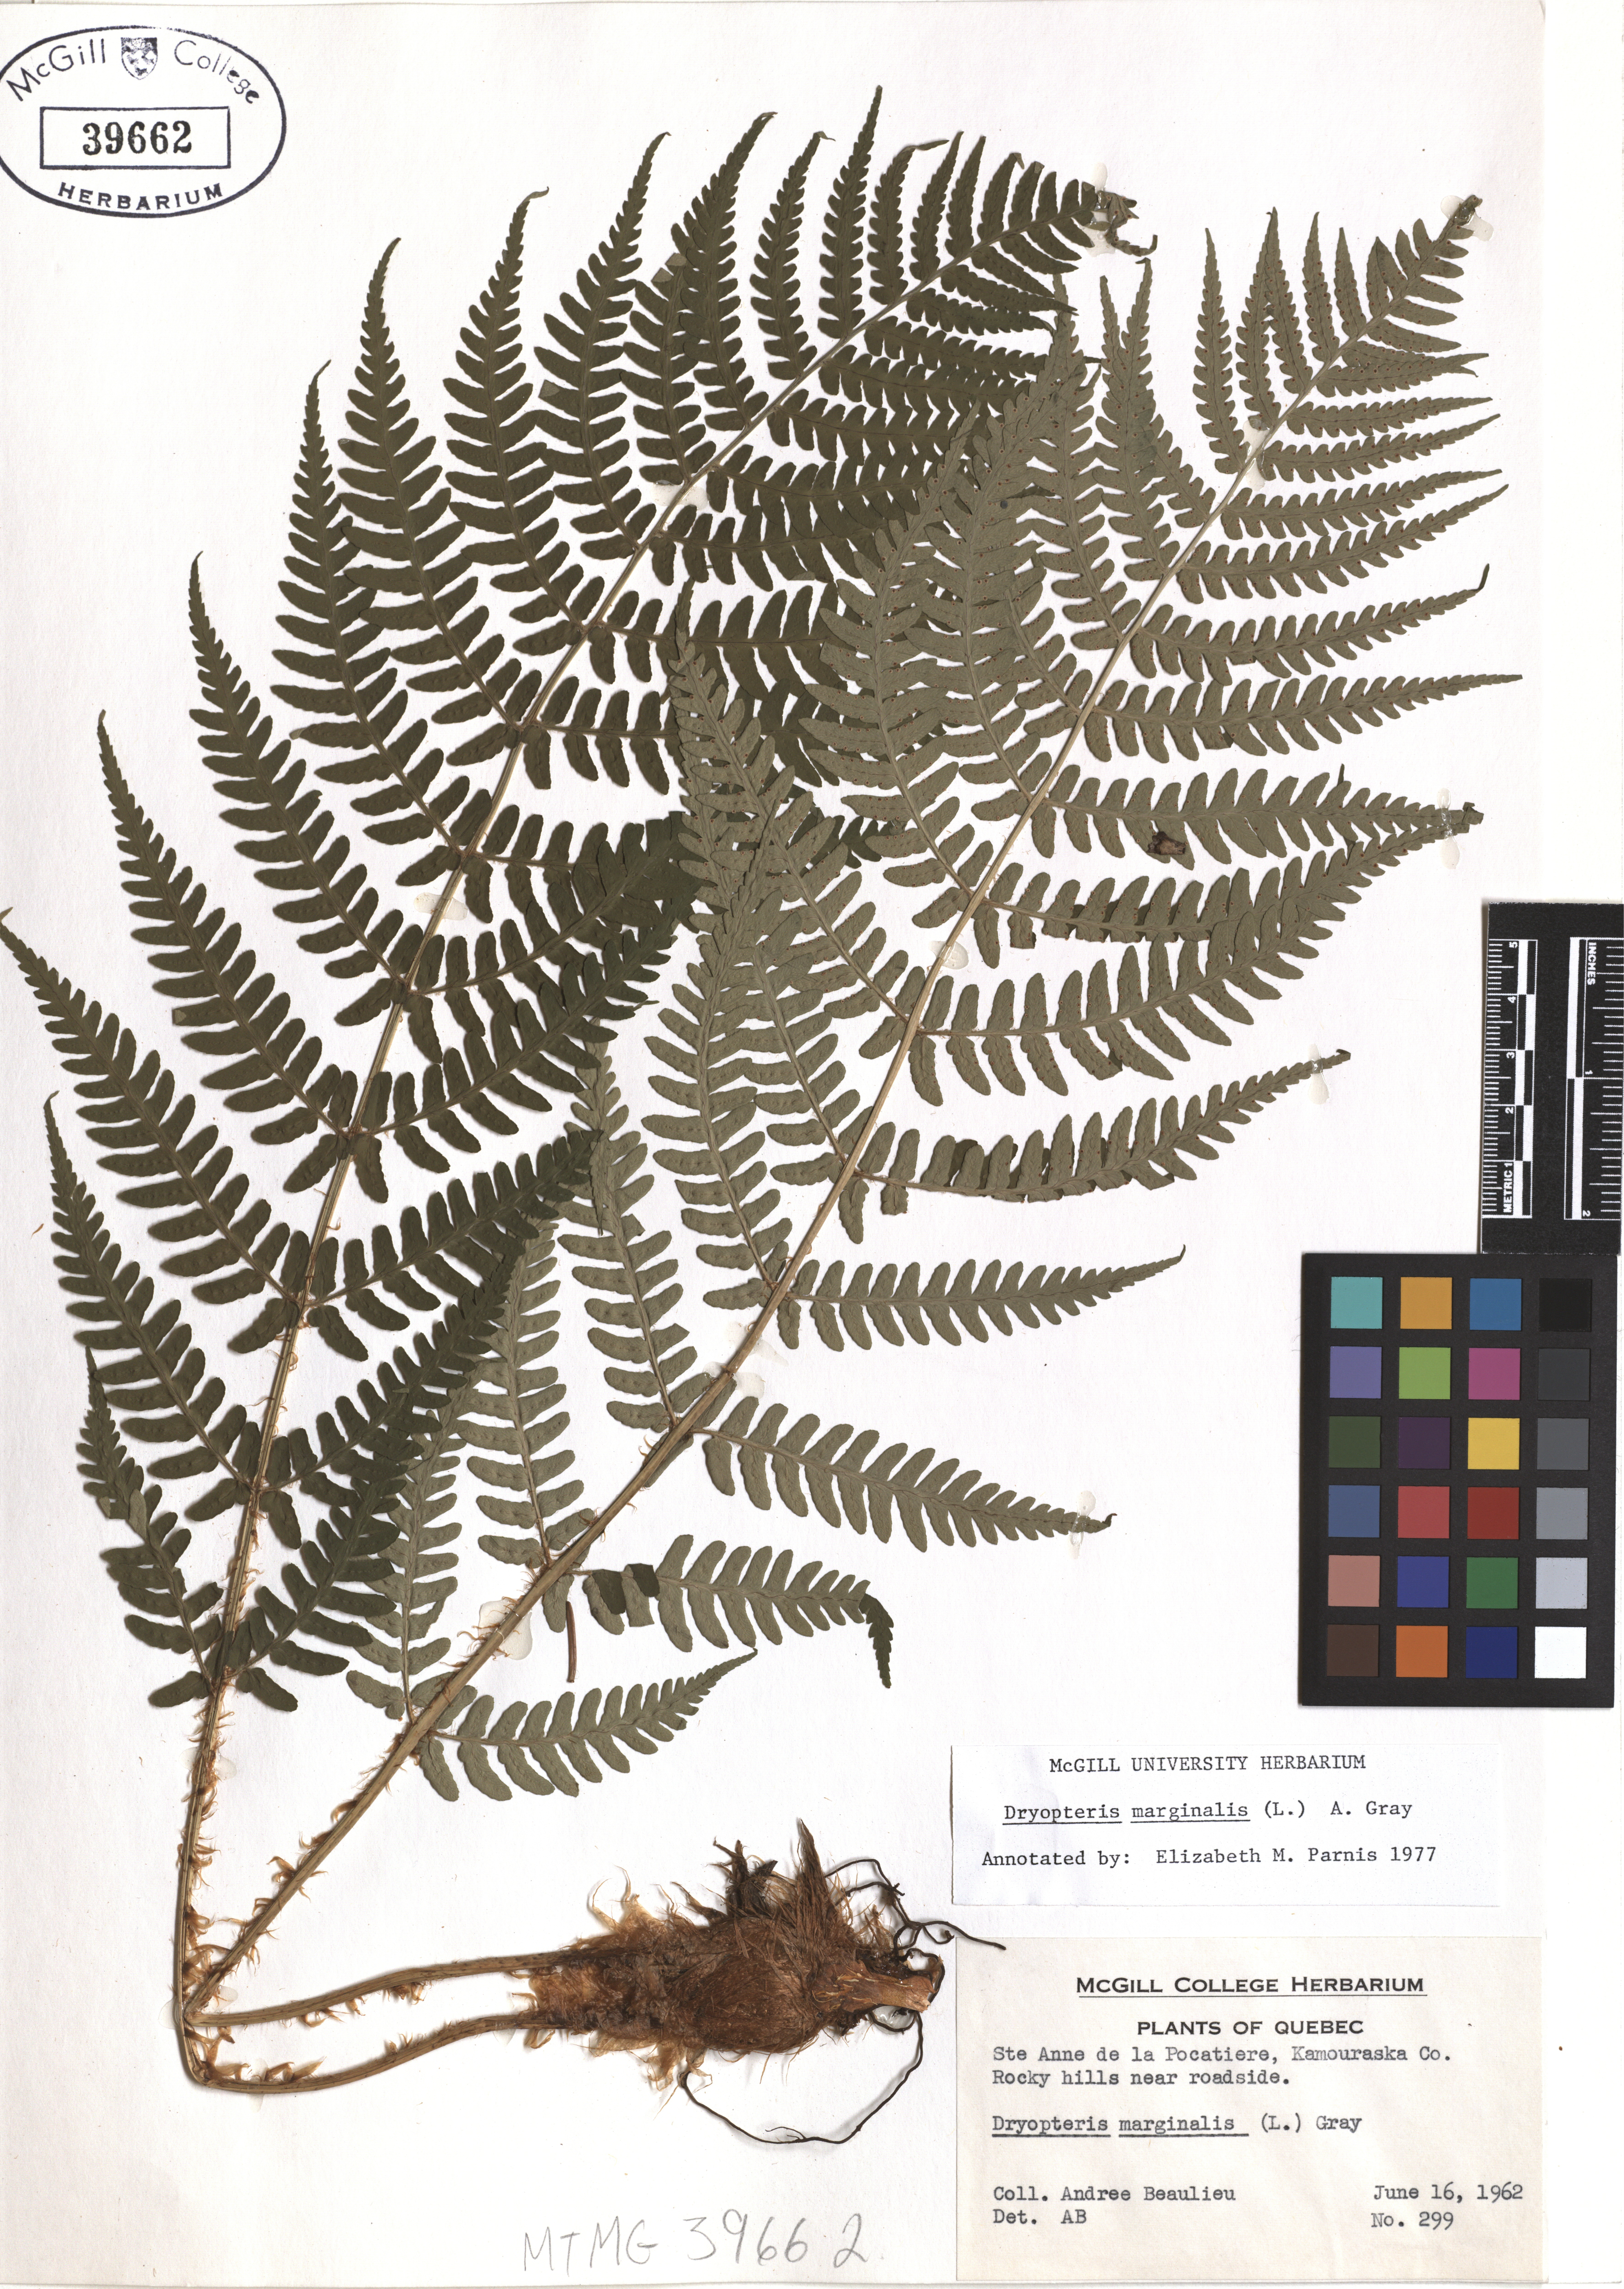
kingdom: Plantae
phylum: Tracheophyta
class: Polypodiopsida
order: Polypodiales
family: Dryopteridaceae
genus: Dryopteris
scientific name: Dryopteris marginalis
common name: Marginal wood fern
